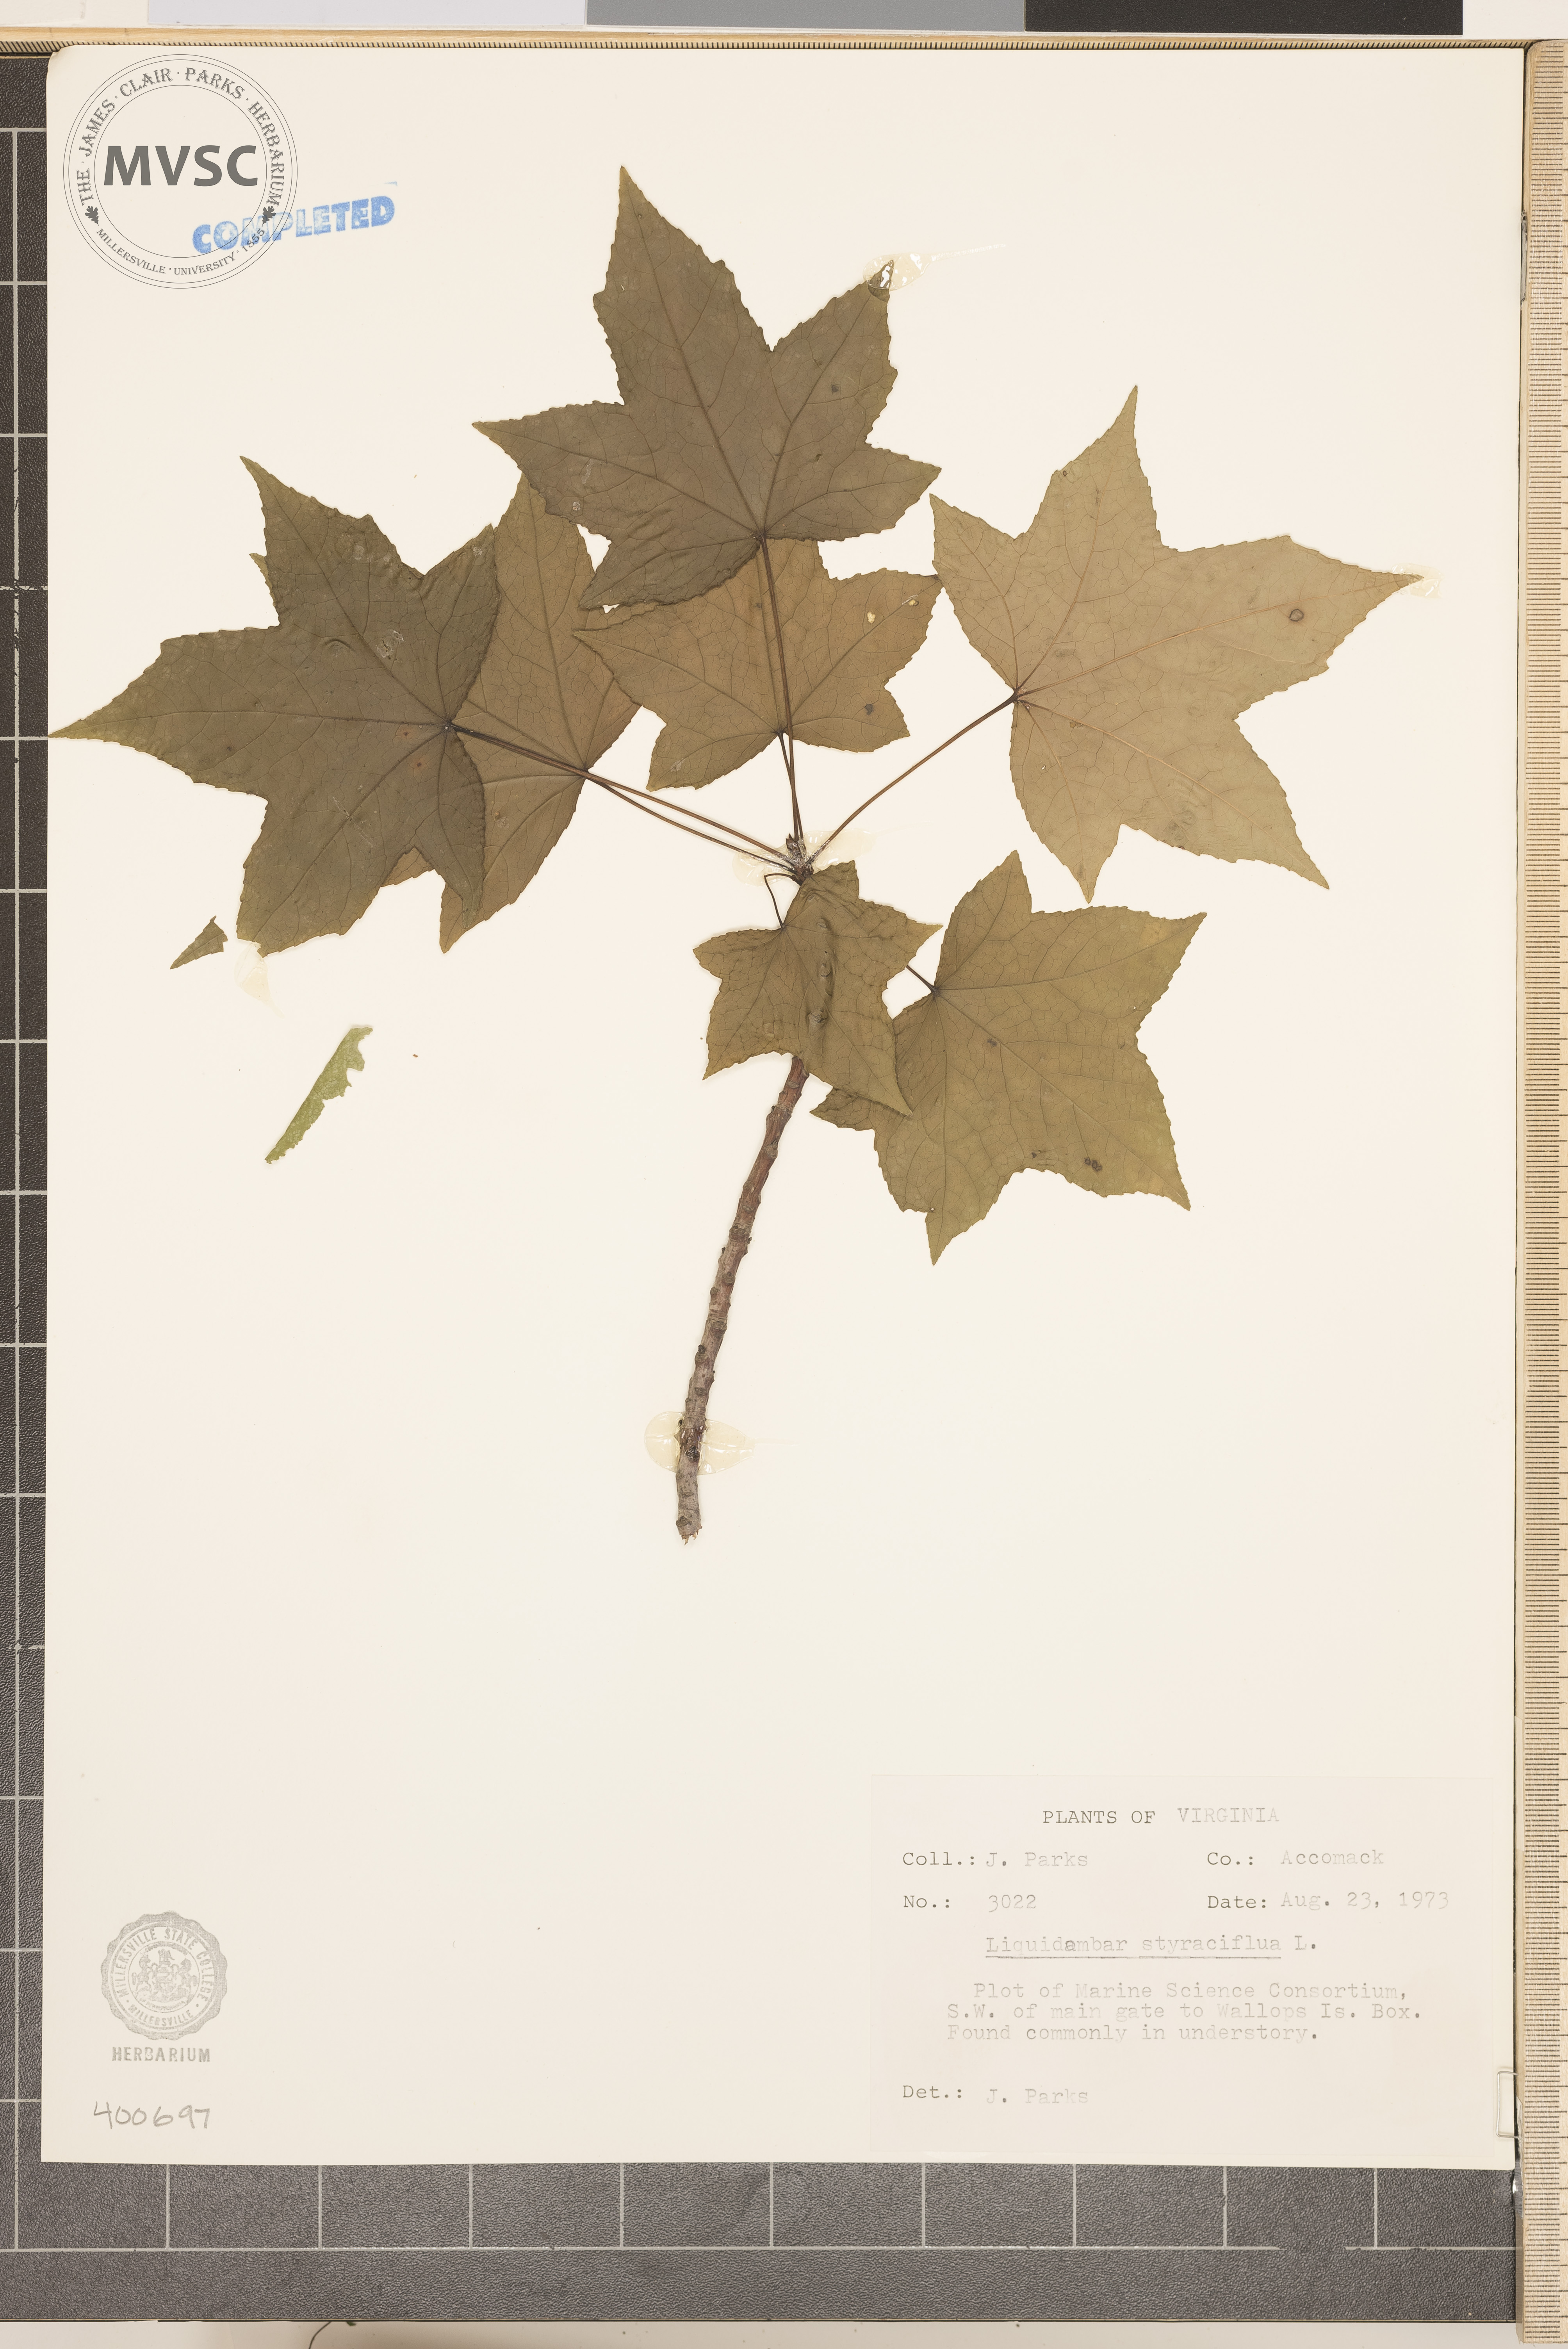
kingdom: Plantae
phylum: Tracheophyta
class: Magnoliopsida
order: Saxifragales
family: Altingiaceae
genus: Liquidambar
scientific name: Liquidambar styraciflua
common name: sweetgum
